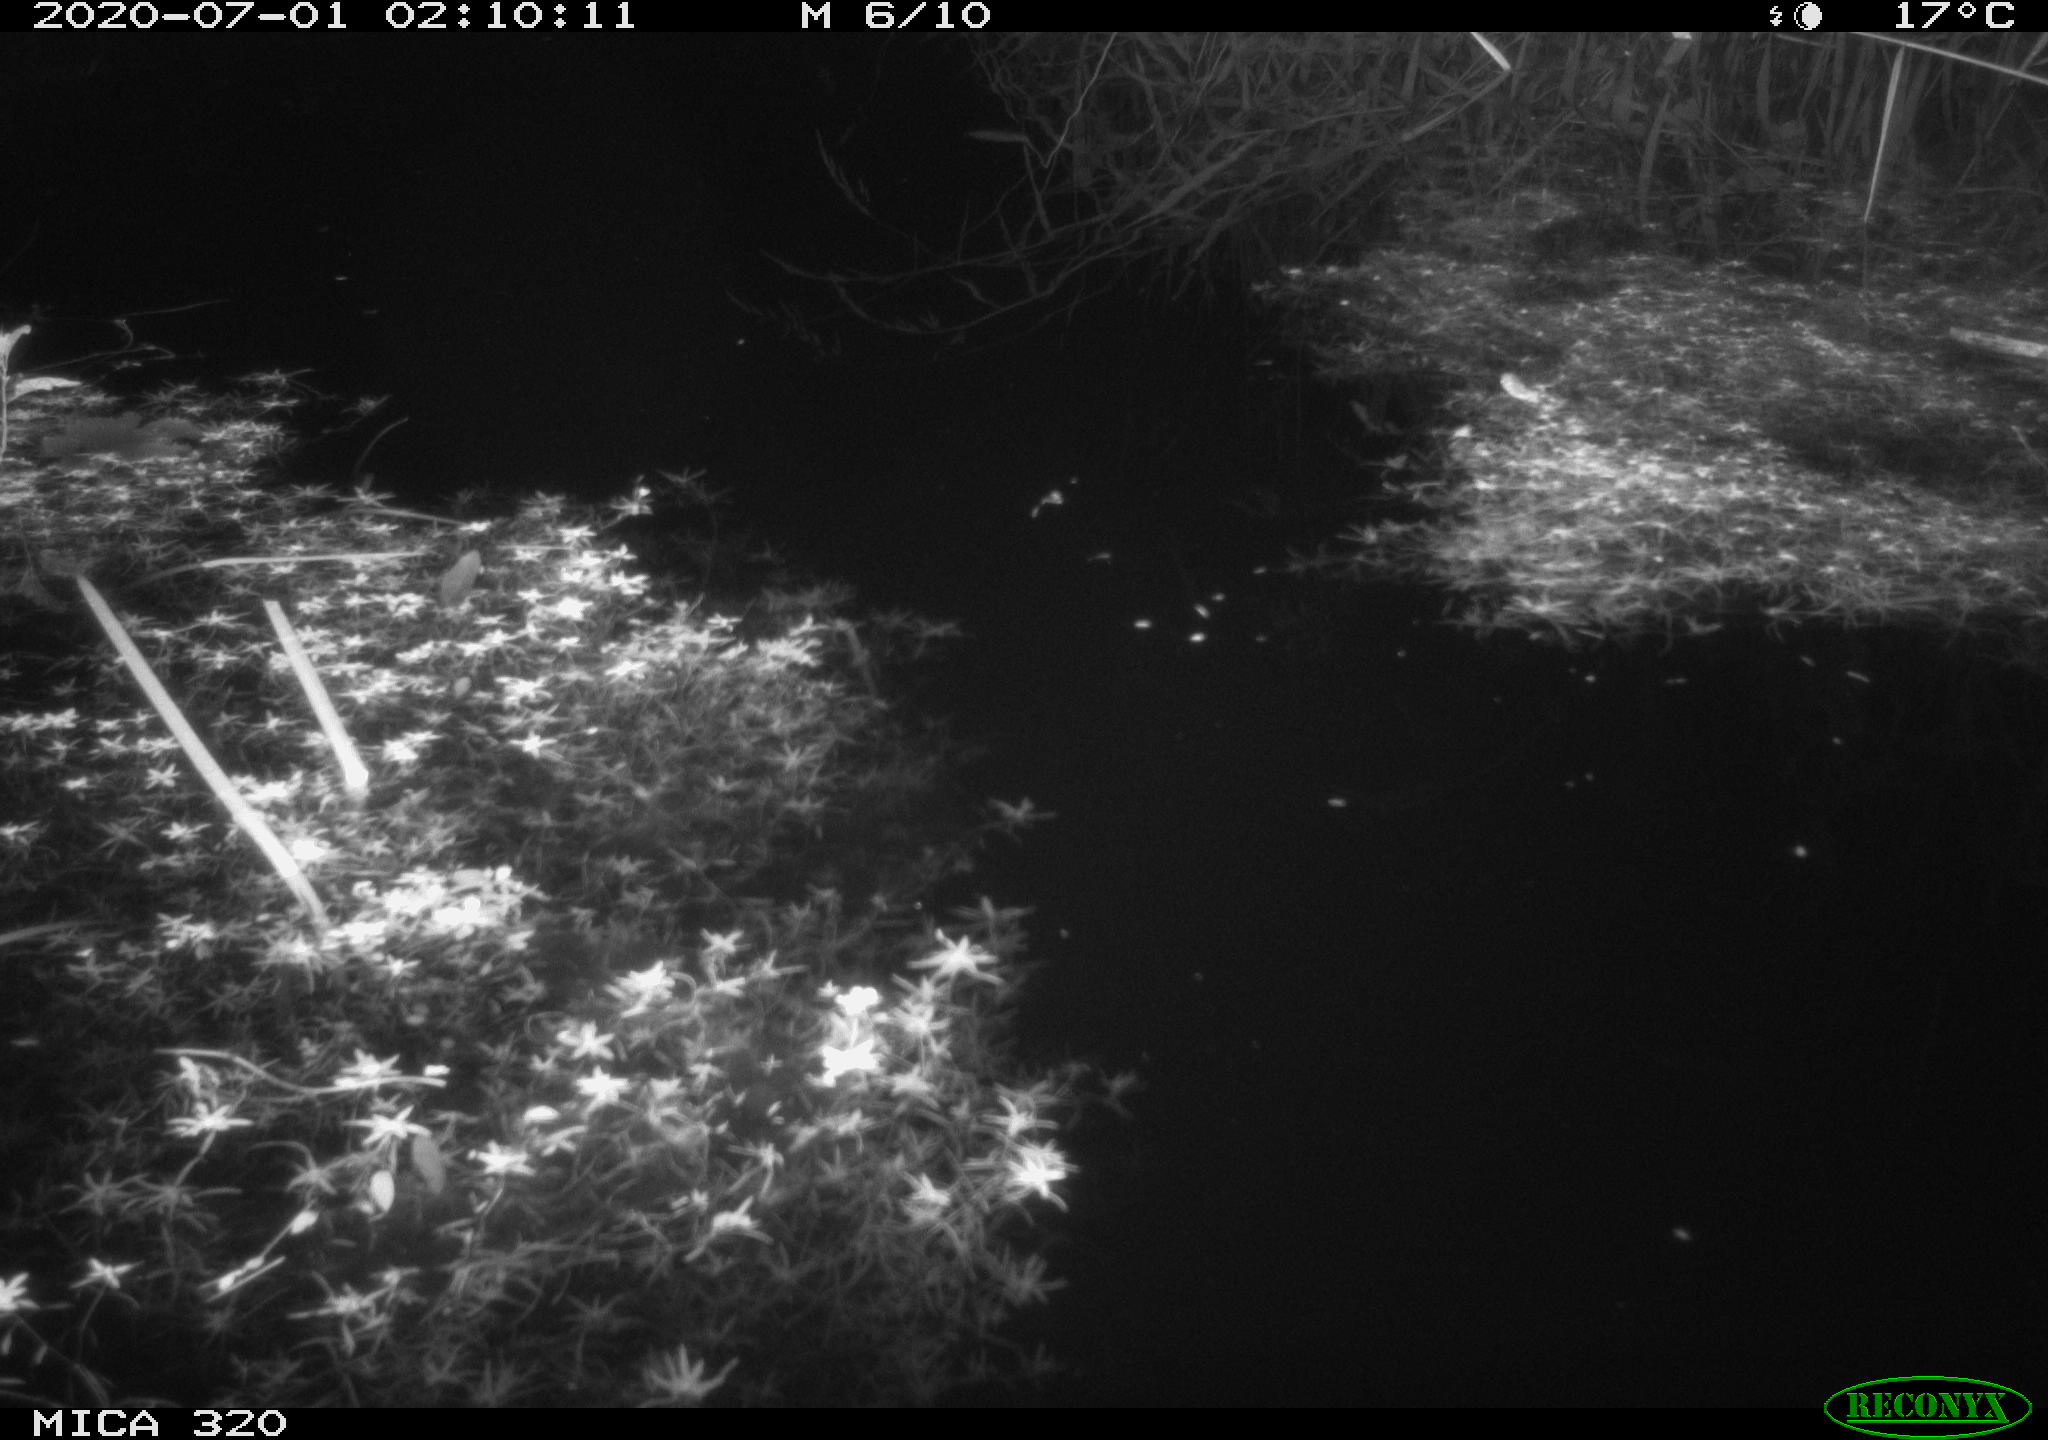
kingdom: Animalia
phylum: Chordata
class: Mammalia
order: Rodentia
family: Muridae
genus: Rattus
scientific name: Rattus norvegicus
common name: Brown rat
